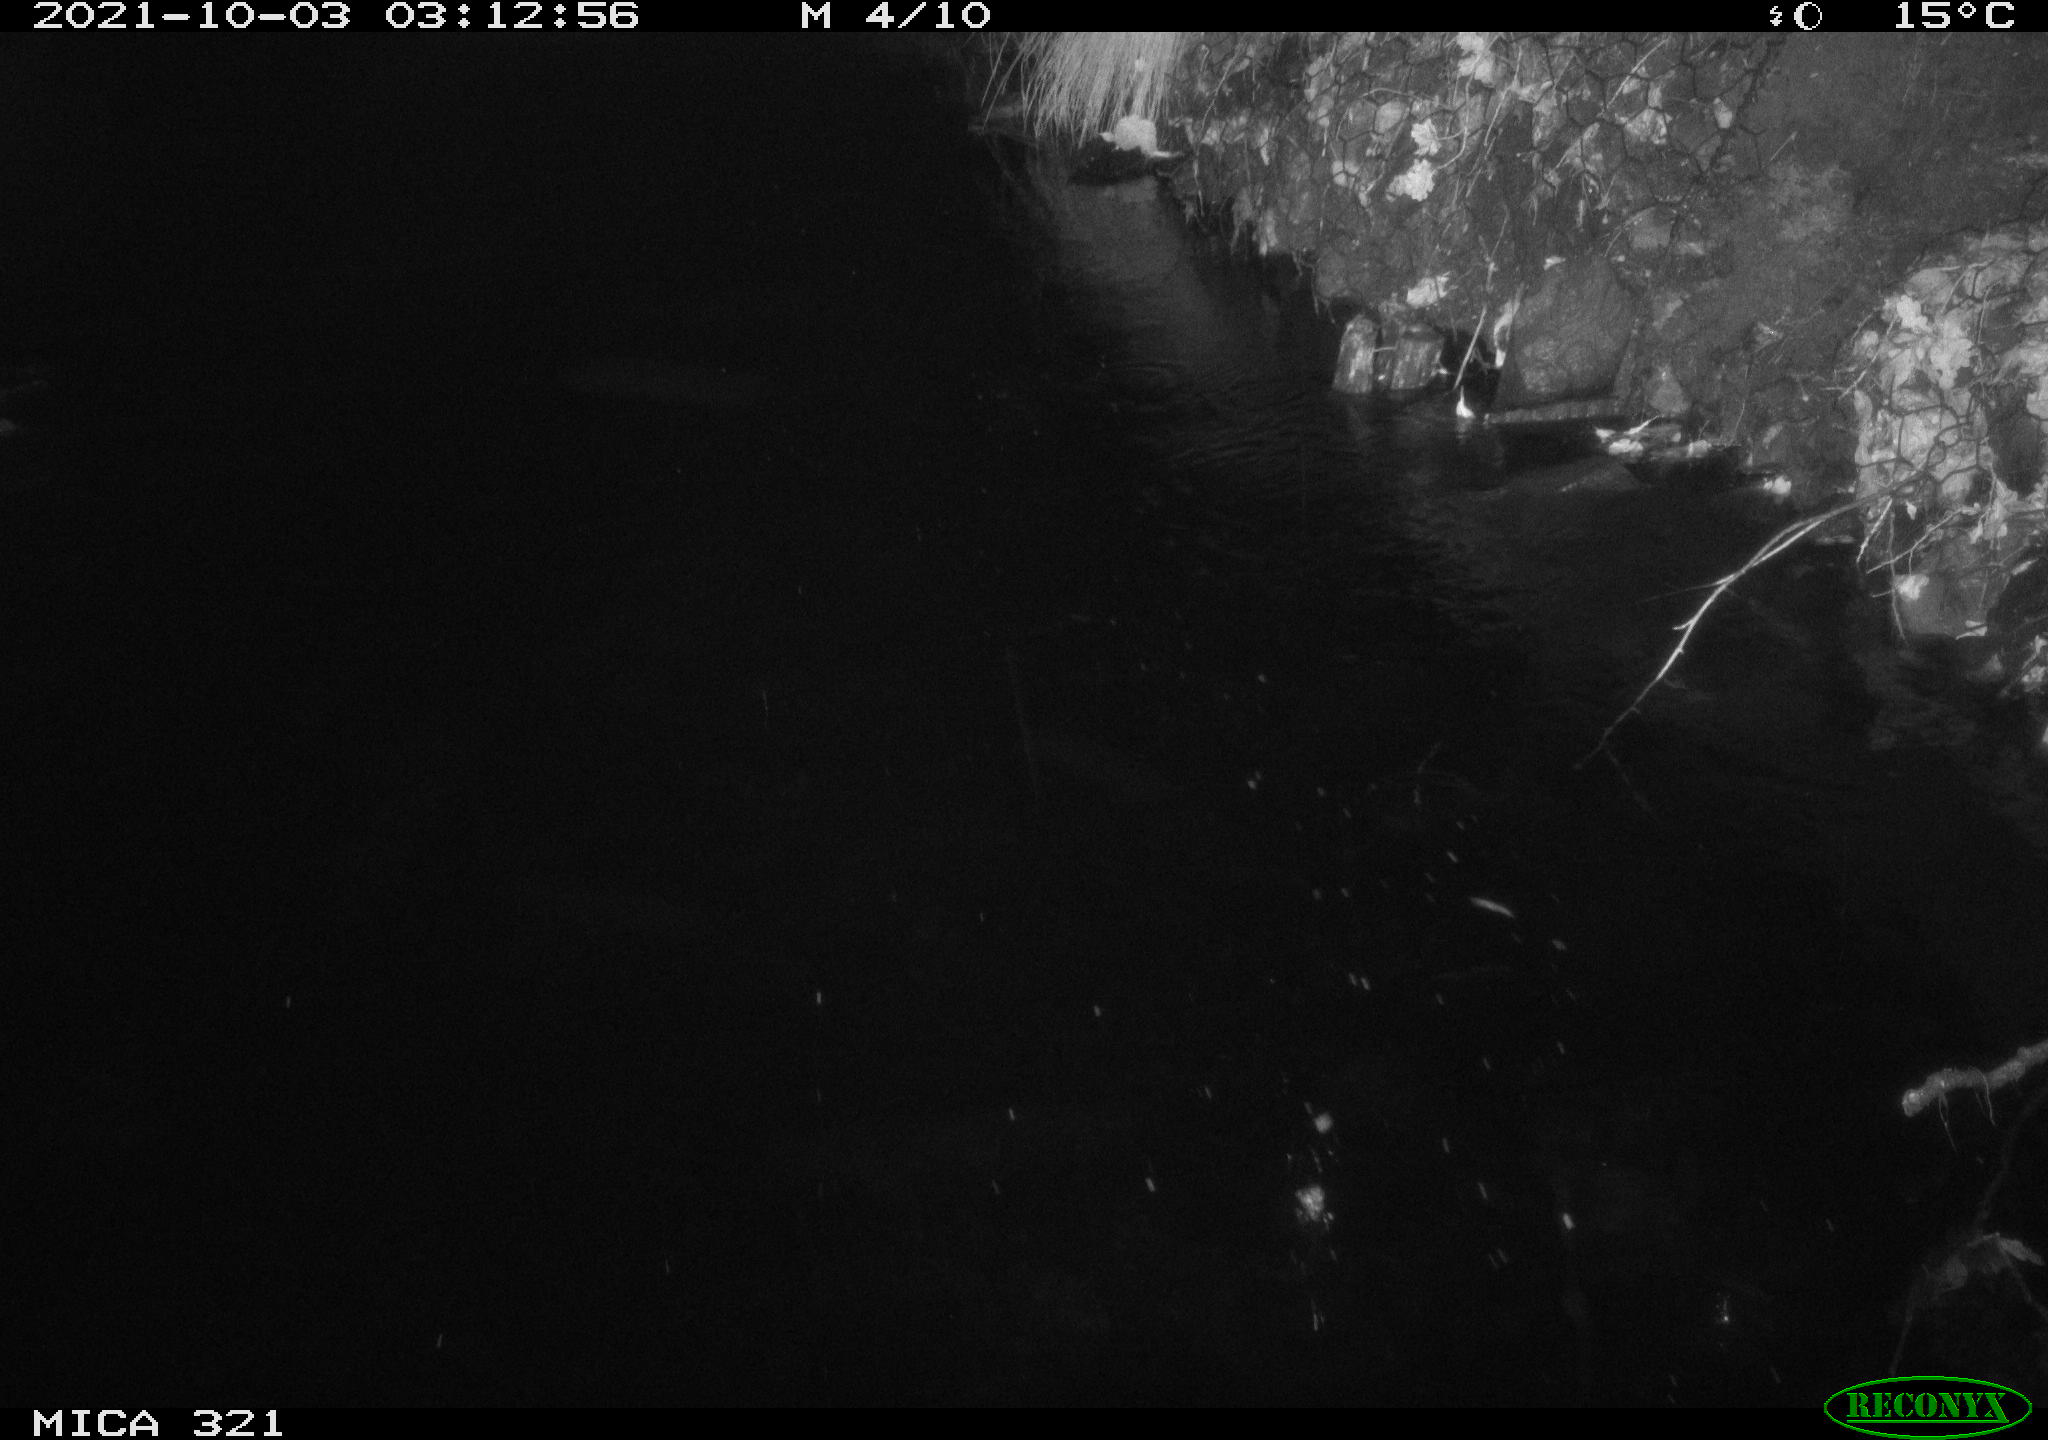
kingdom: Animalia
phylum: Chordata
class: Aves
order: Anseriformes
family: Anatidae
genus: Anas
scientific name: Anas platyrhynchos
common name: Mallard
